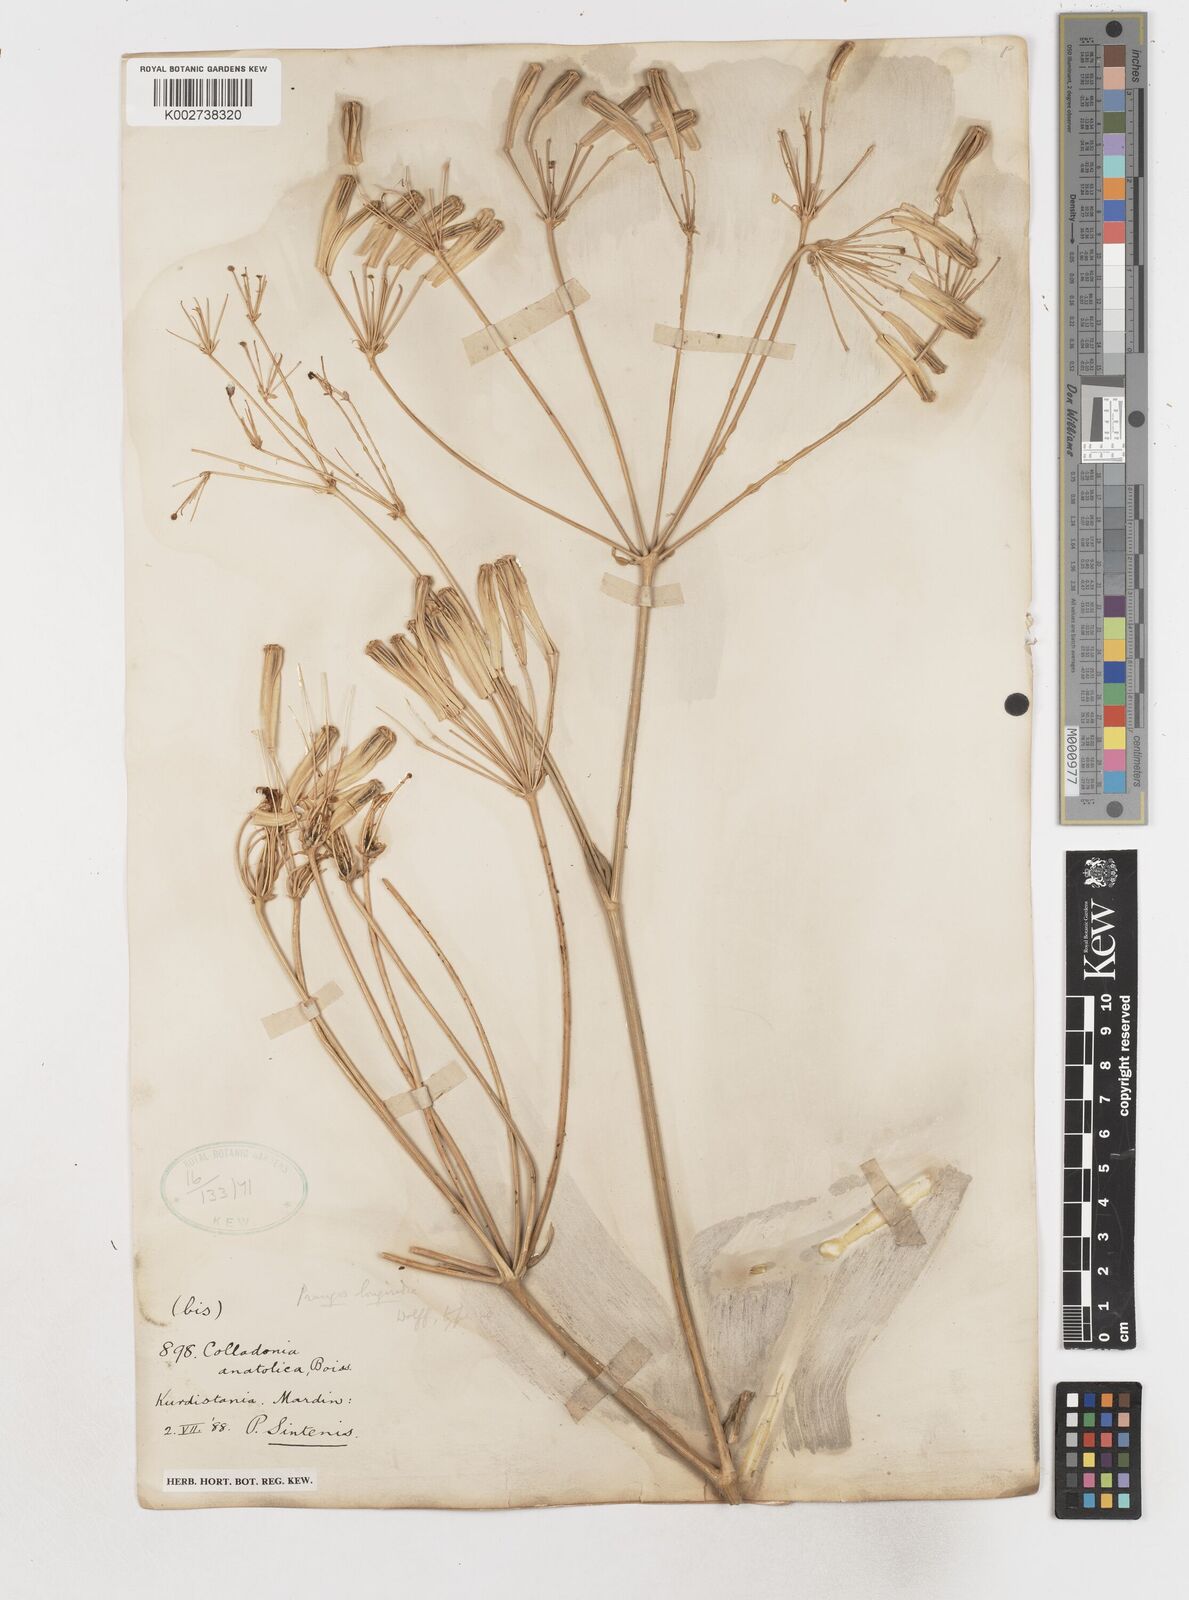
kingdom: Plantae
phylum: Tracheophyta
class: Magnoliopsida
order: Apiales
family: Apiaceae
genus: Heptaptera
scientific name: Heptaptera anatolica
